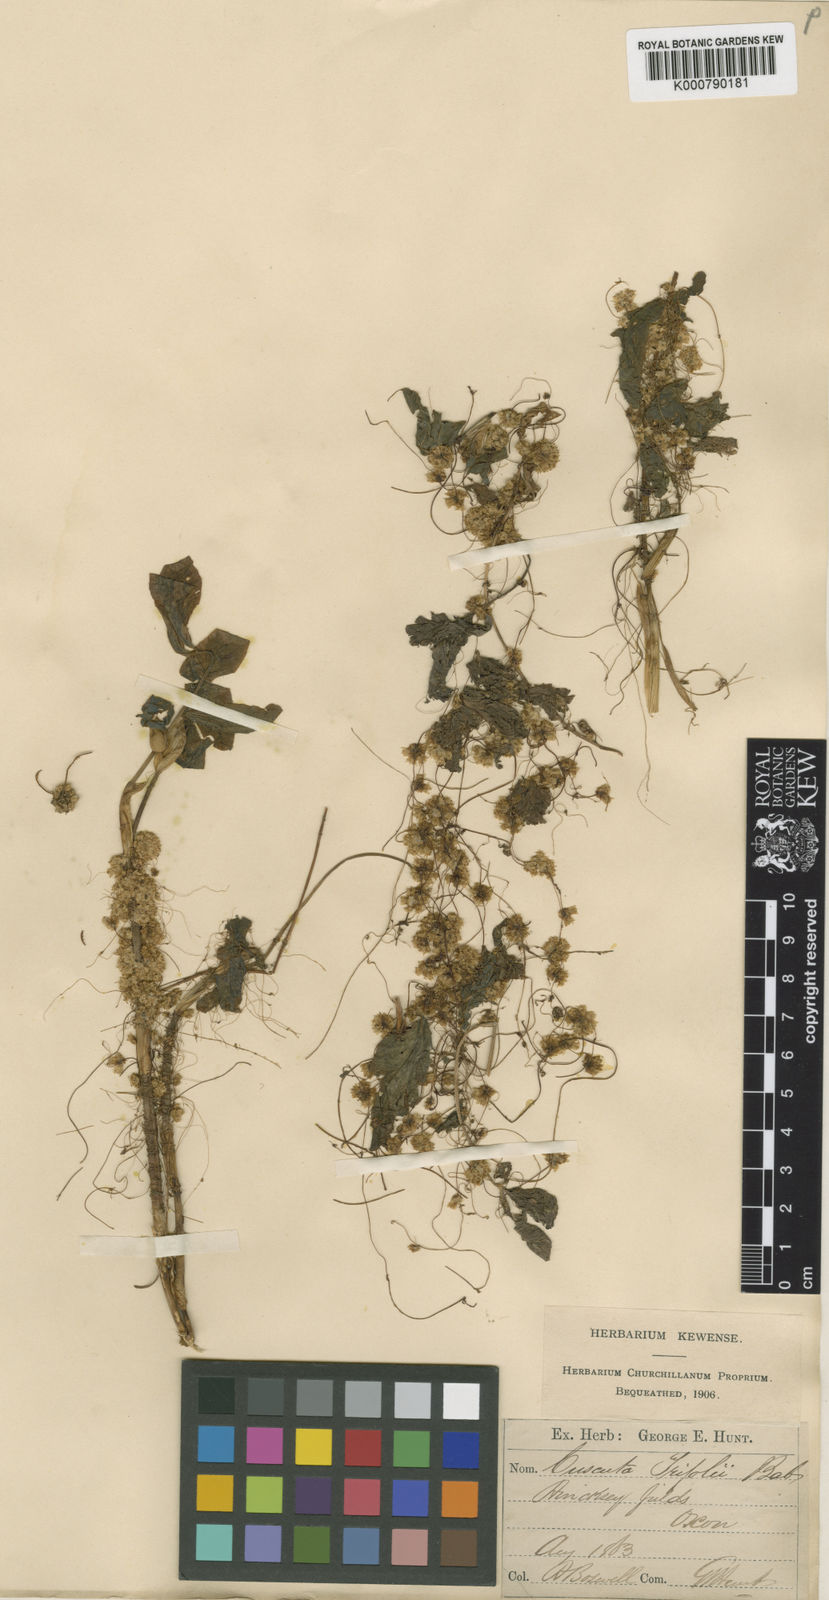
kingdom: Plantae
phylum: Tracheophyta
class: Magnoliopsida
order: Solanales
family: Convolvulaceae
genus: Cuscuta
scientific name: Cuscuta epithymum
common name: Clover dodder
